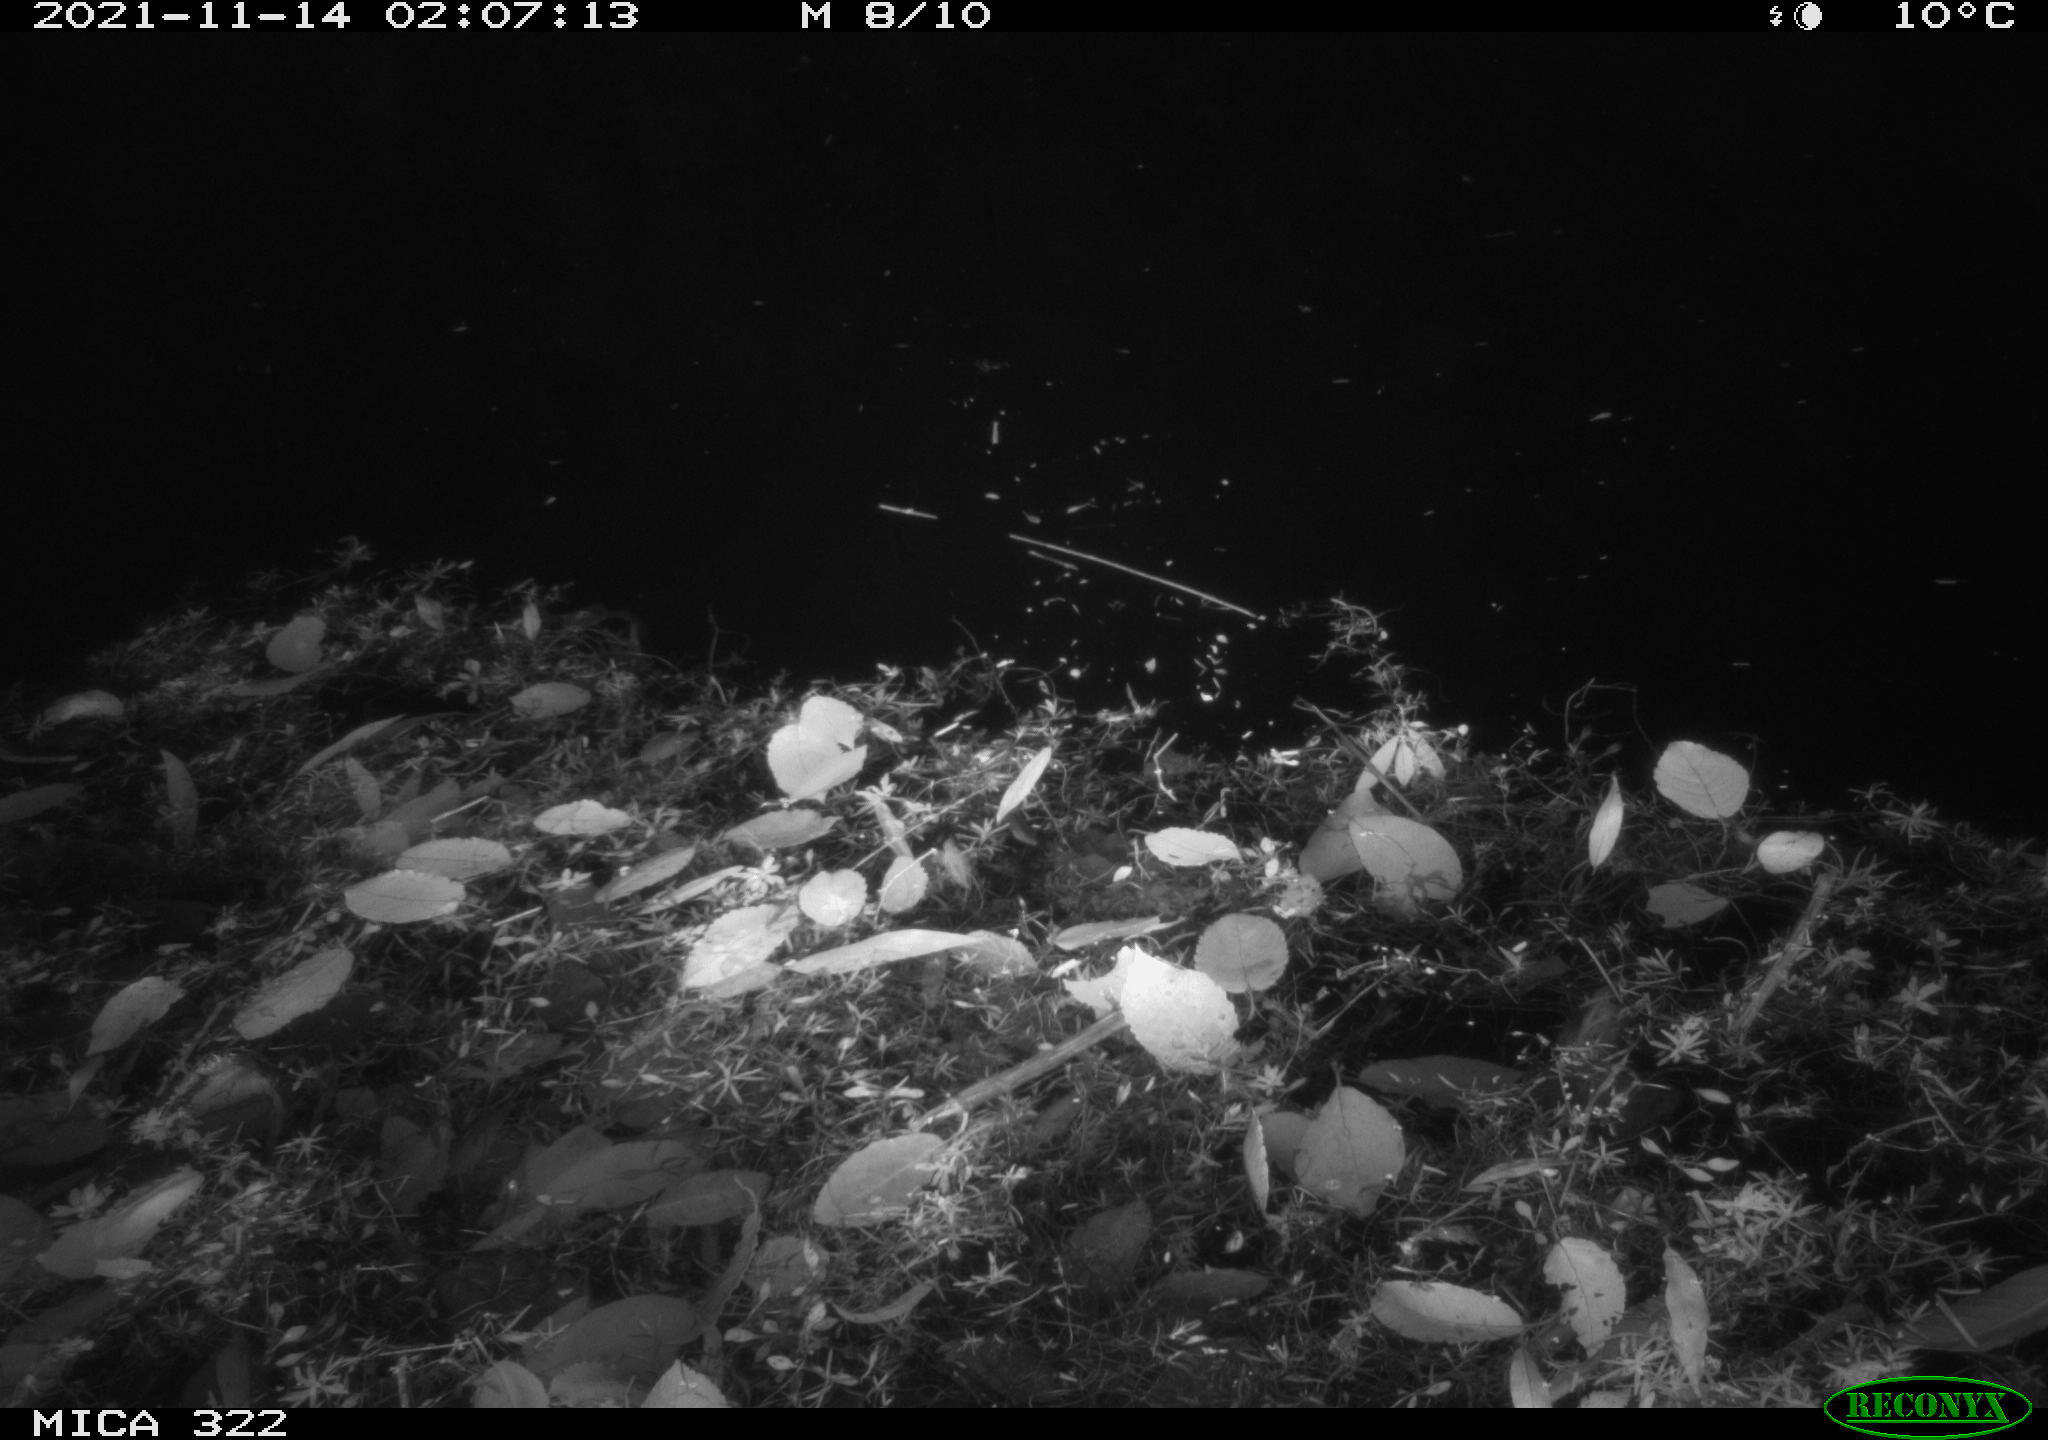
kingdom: Animalia
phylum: Chordata
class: Mammalia
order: Rodentia
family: Muridae
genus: Rattus
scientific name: Rattus norvegicus
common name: Brown rat
